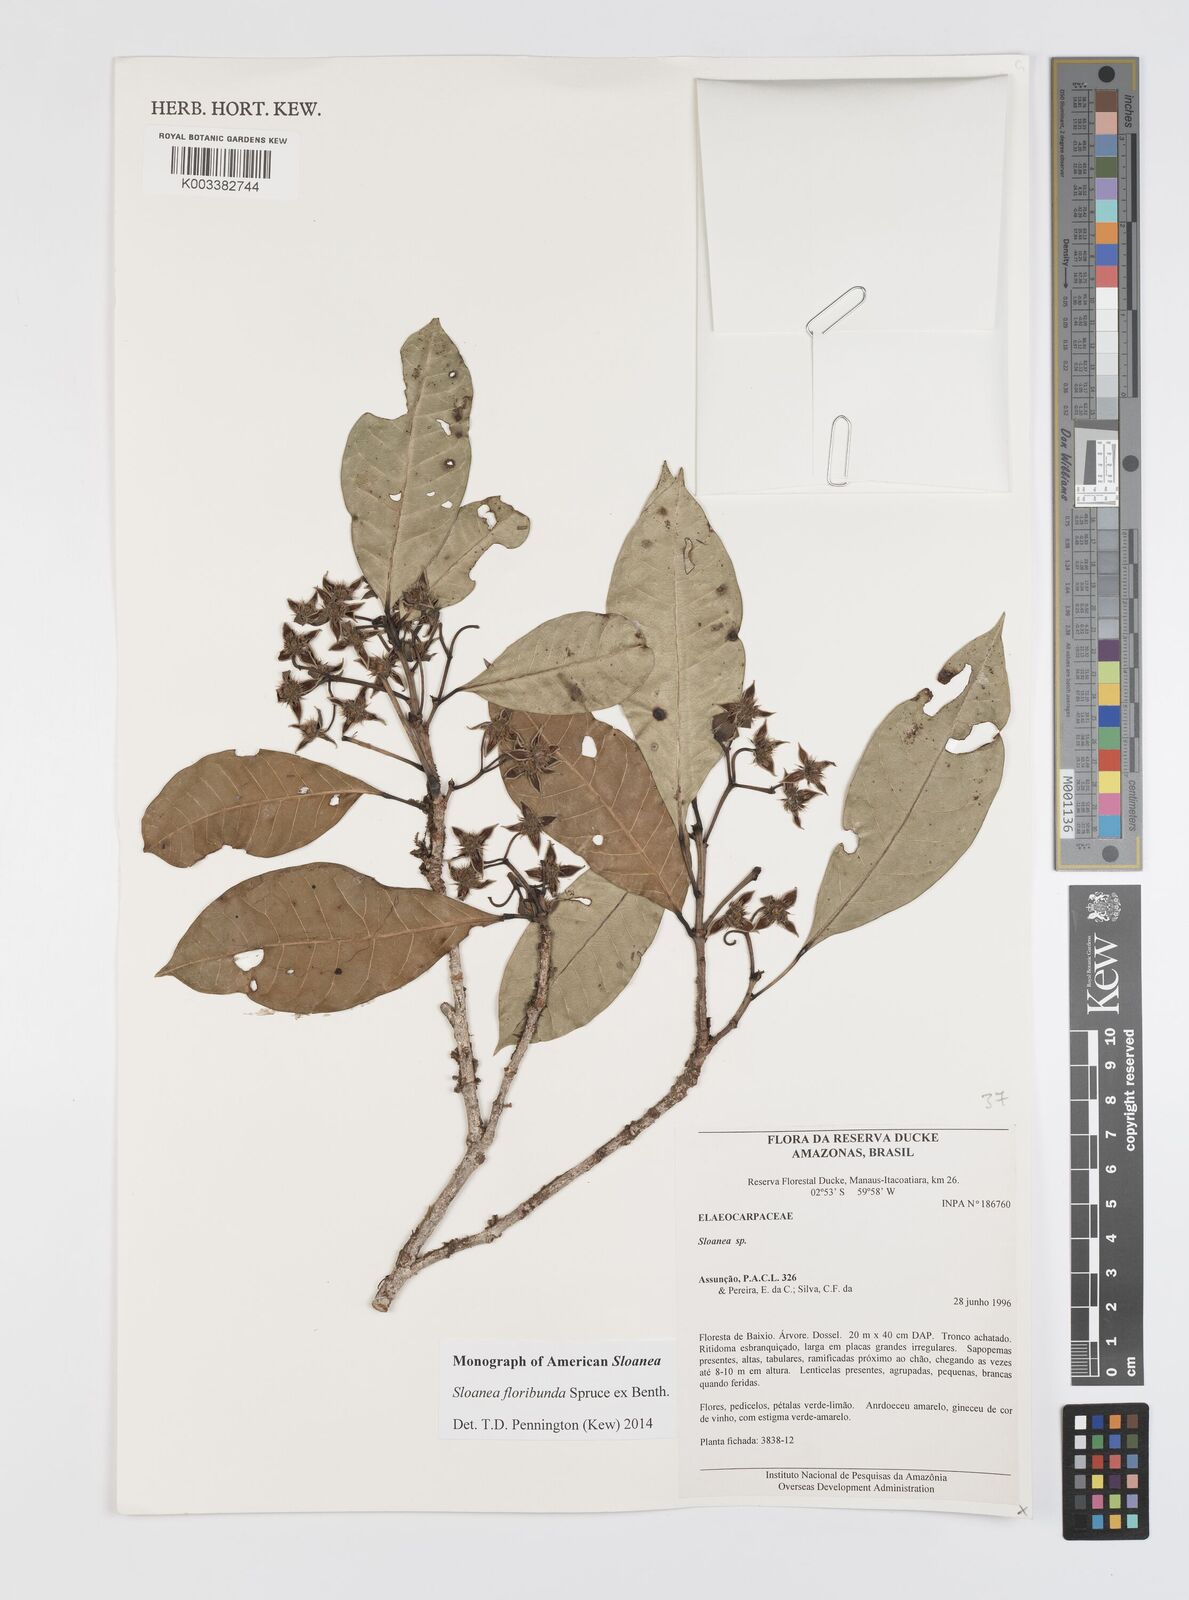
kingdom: Plantae
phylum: Tracheophyta
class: Magnoliopsida
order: Oxalidales
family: Elaeocarpaceae
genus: Sloanea
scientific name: Sloanea floribunda
